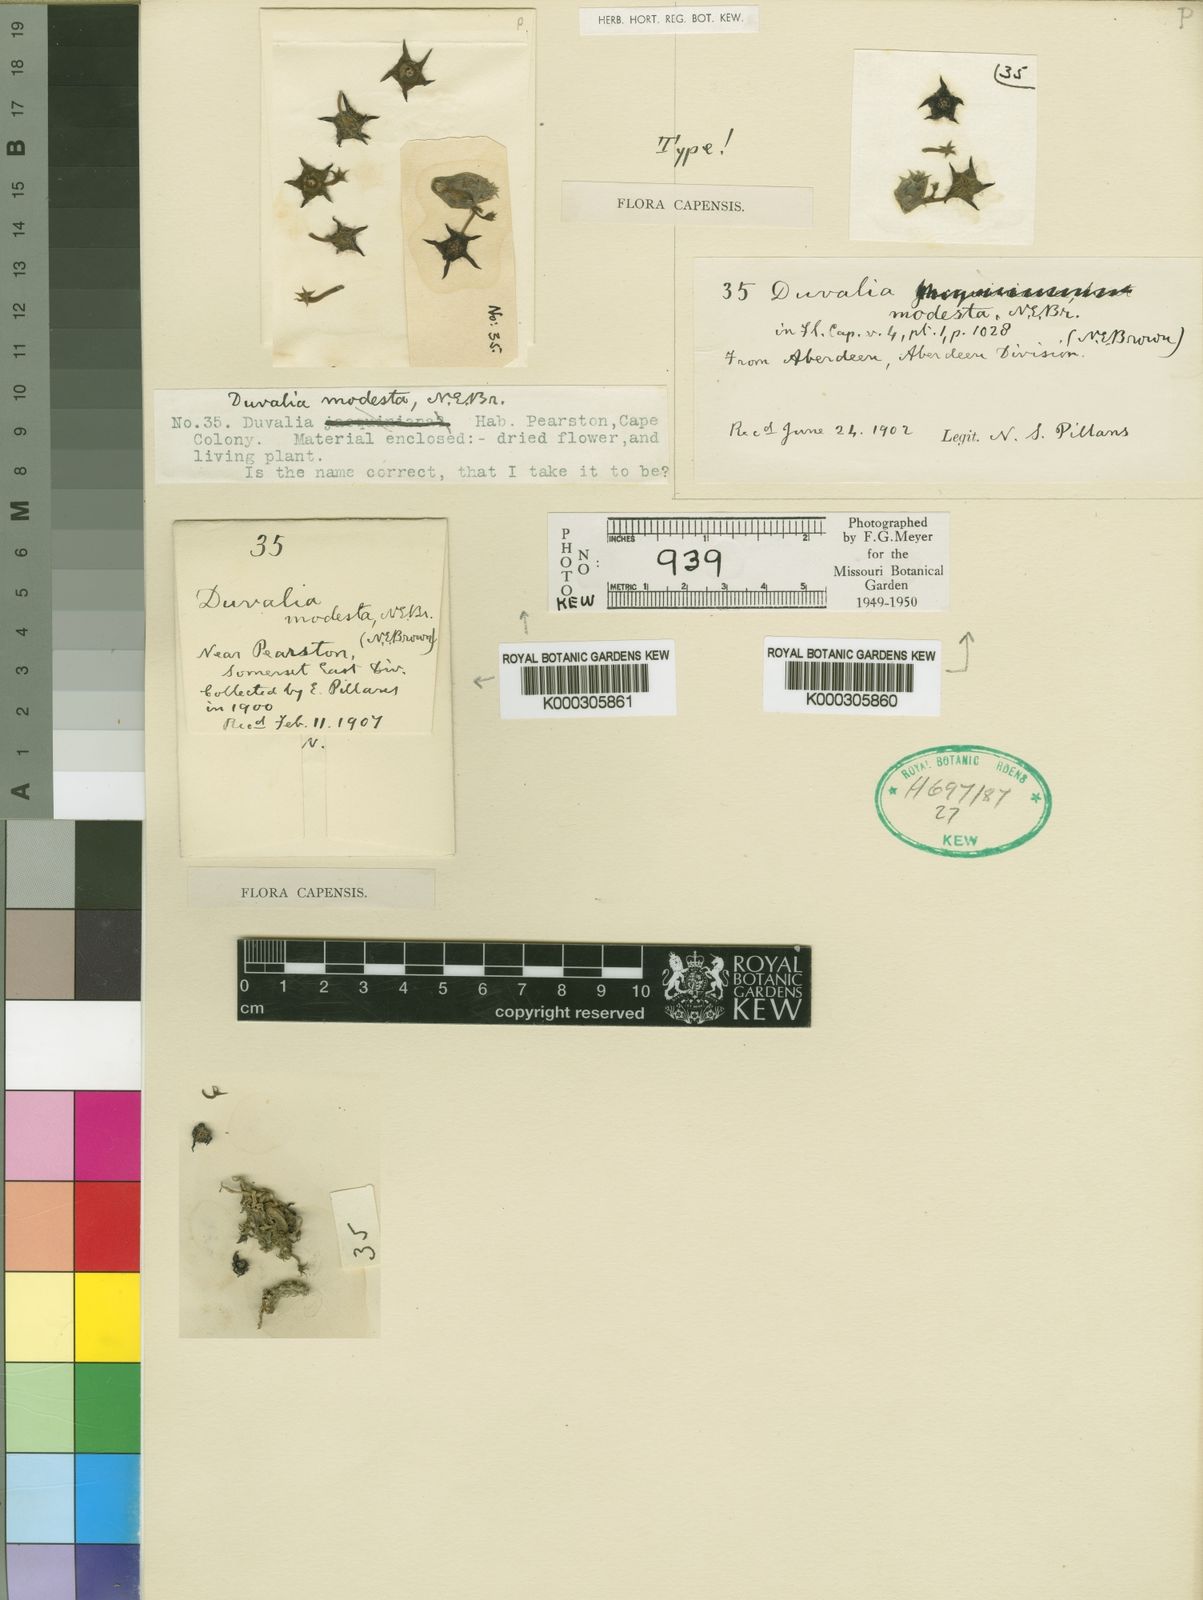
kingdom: Plantae
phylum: Tracheophyta
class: Magnoliopsida
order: Gentianales
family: Apocynaceae
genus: Ceropegia
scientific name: Ceropegia modesta
